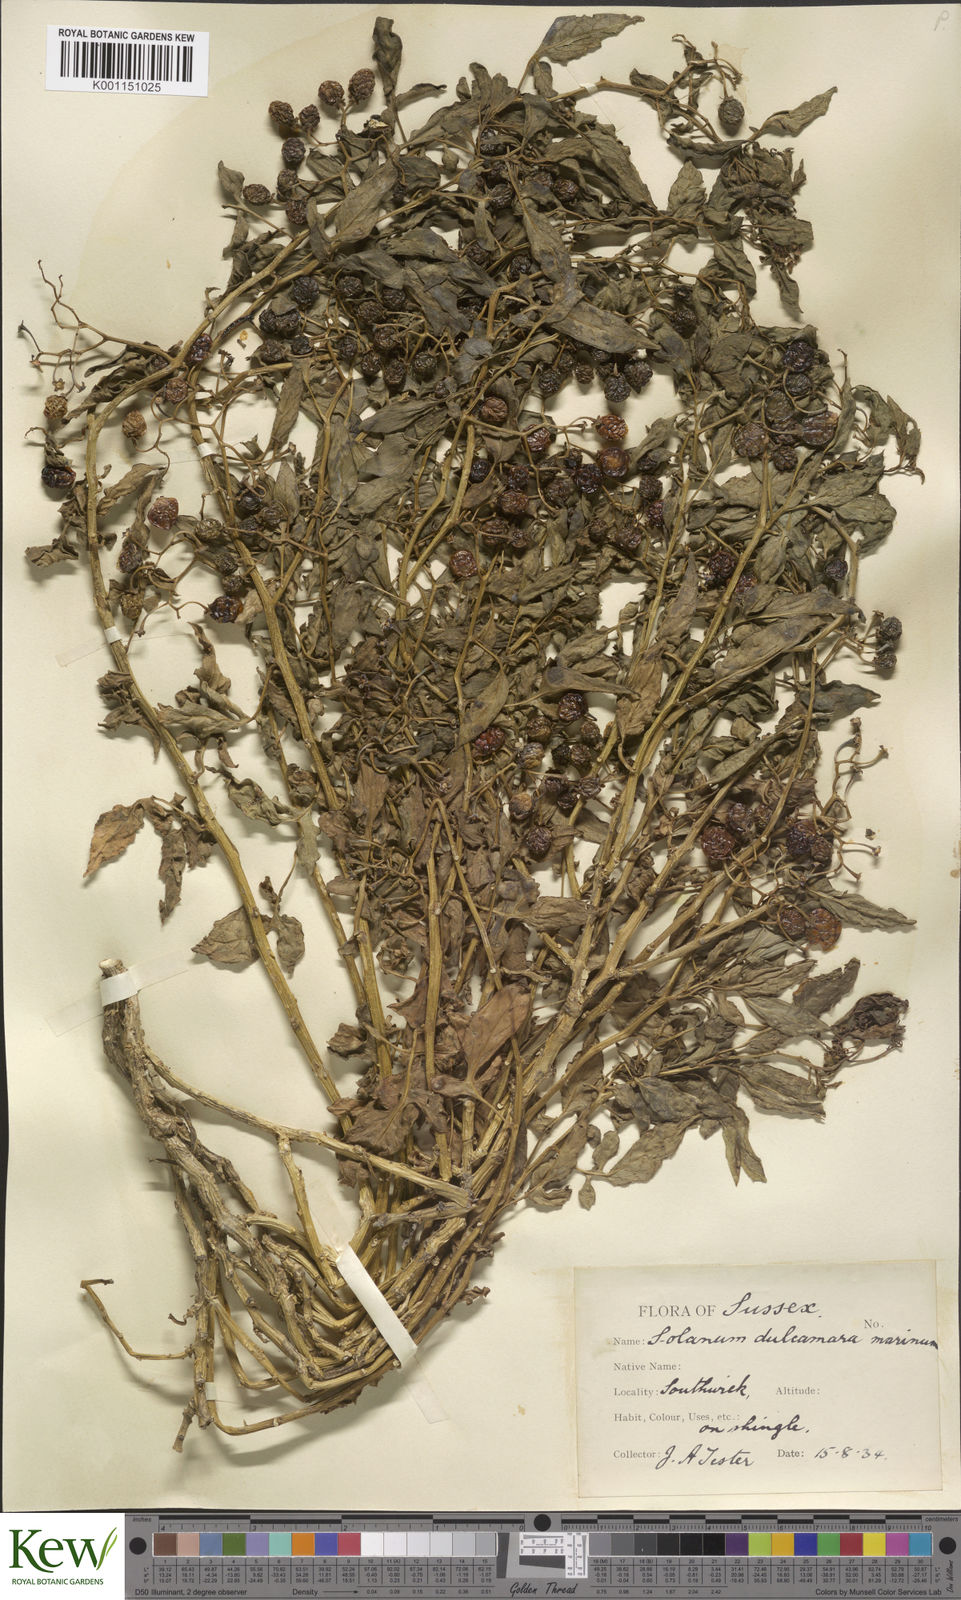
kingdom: Plantae
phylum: Tracheophyta
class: Magnoliopsida
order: Solanales
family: Solanaceae
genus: Solanum
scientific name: Solanum dulcamara
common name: Climbing nightshade
